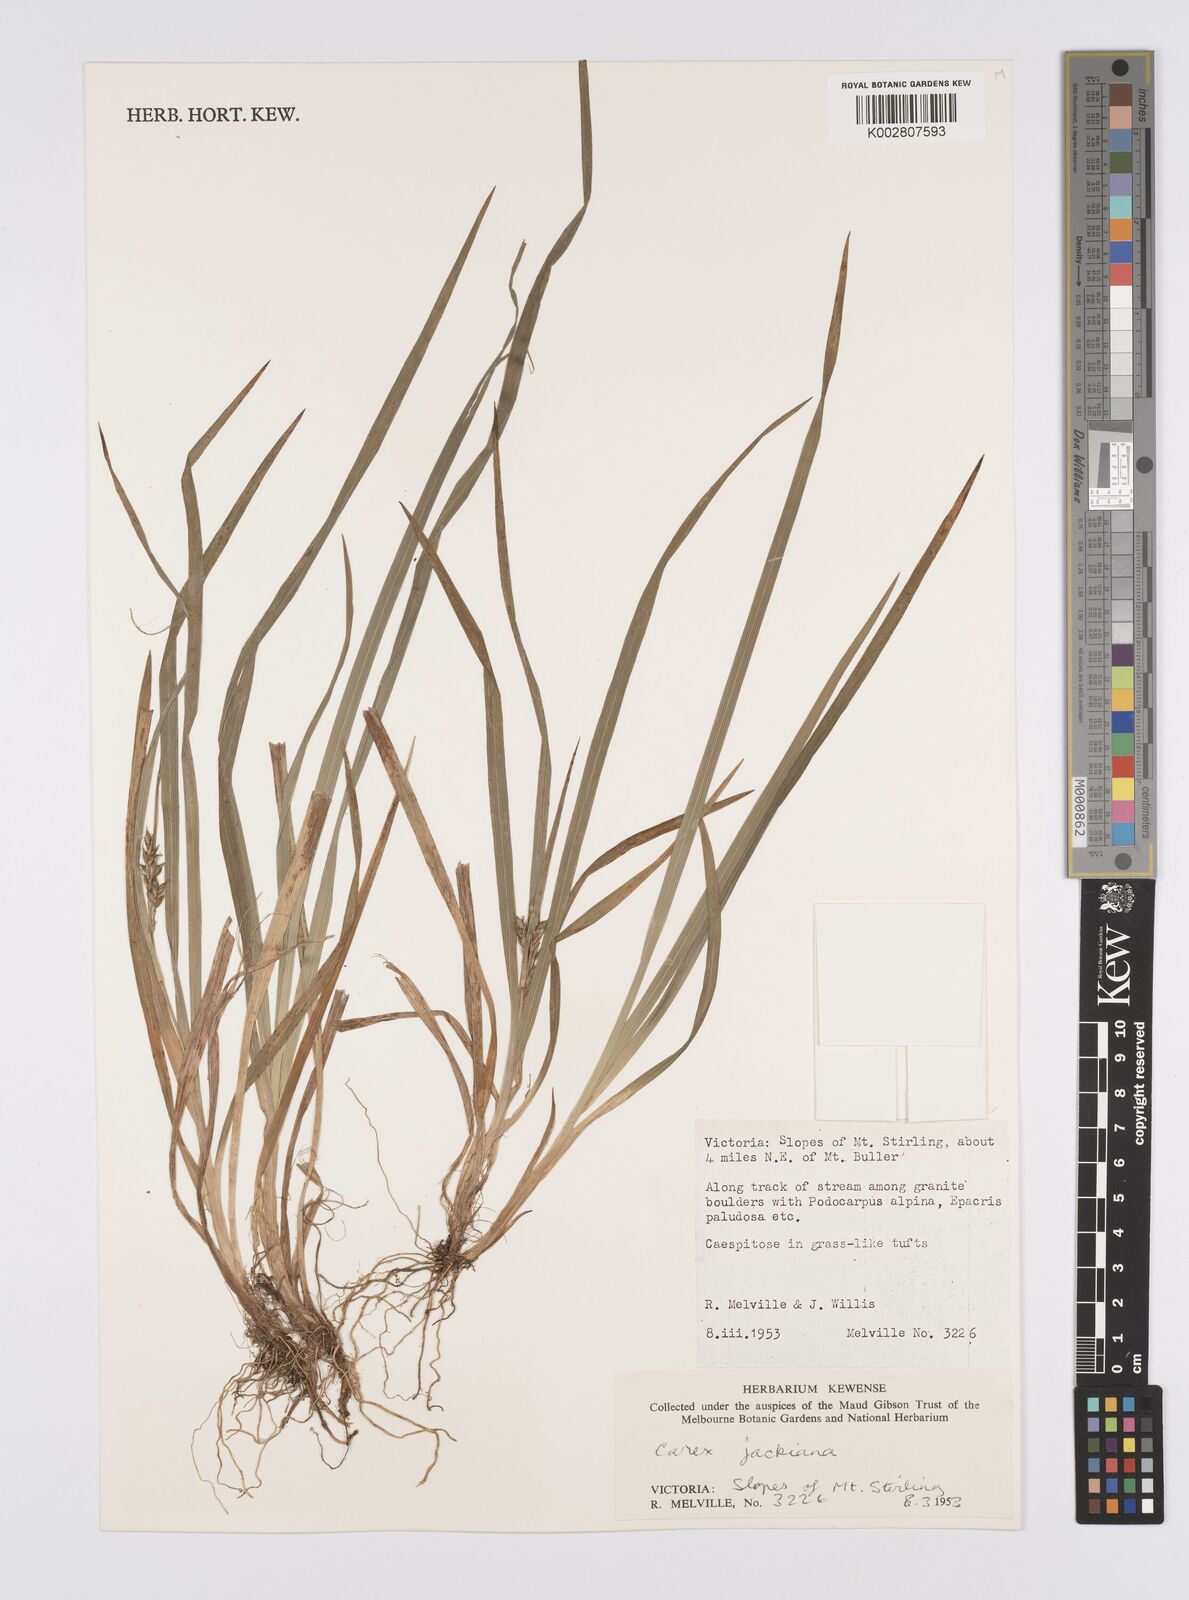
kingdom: Plantae
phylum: Tracheophyta
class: Liliopsida
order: Poales
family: Cyperaceae
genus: Carex
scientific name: Carex jackiana
